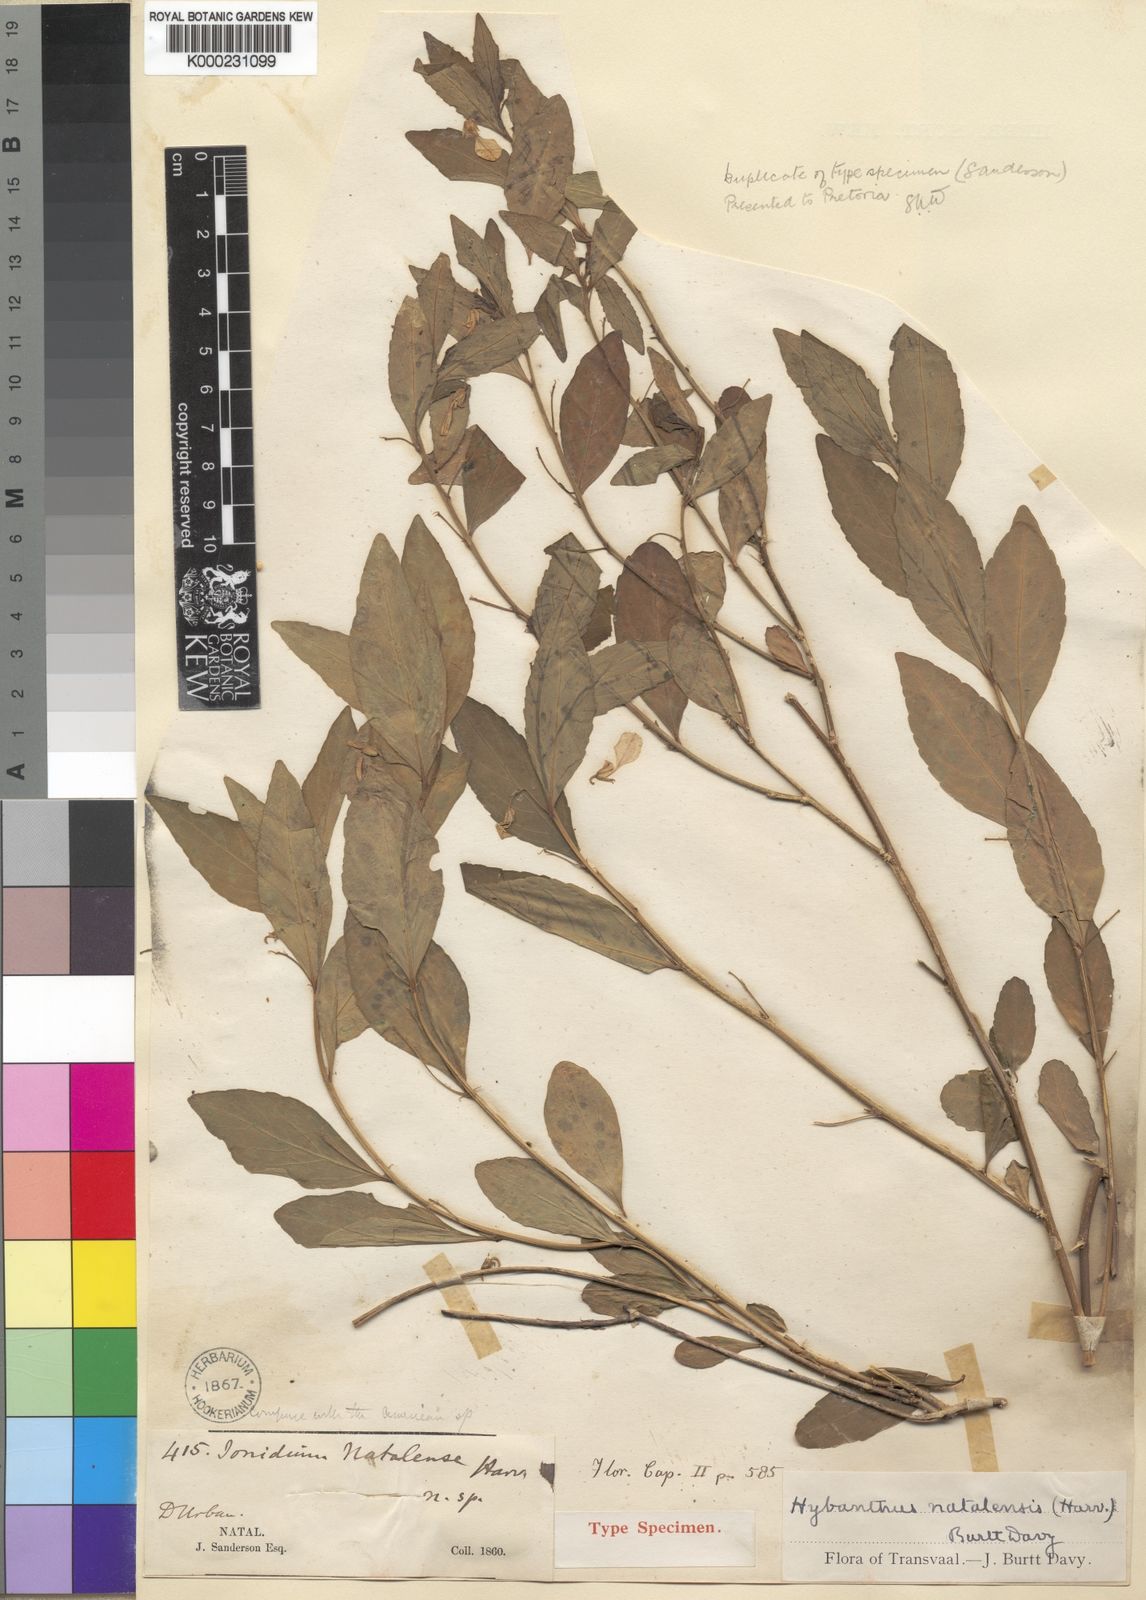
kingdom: Plantae
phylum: Tracheophyta
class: Magnoliopsida
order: Malpighiales
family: Violaceae
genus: Hybanthus
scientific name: Hybanthus capensis
